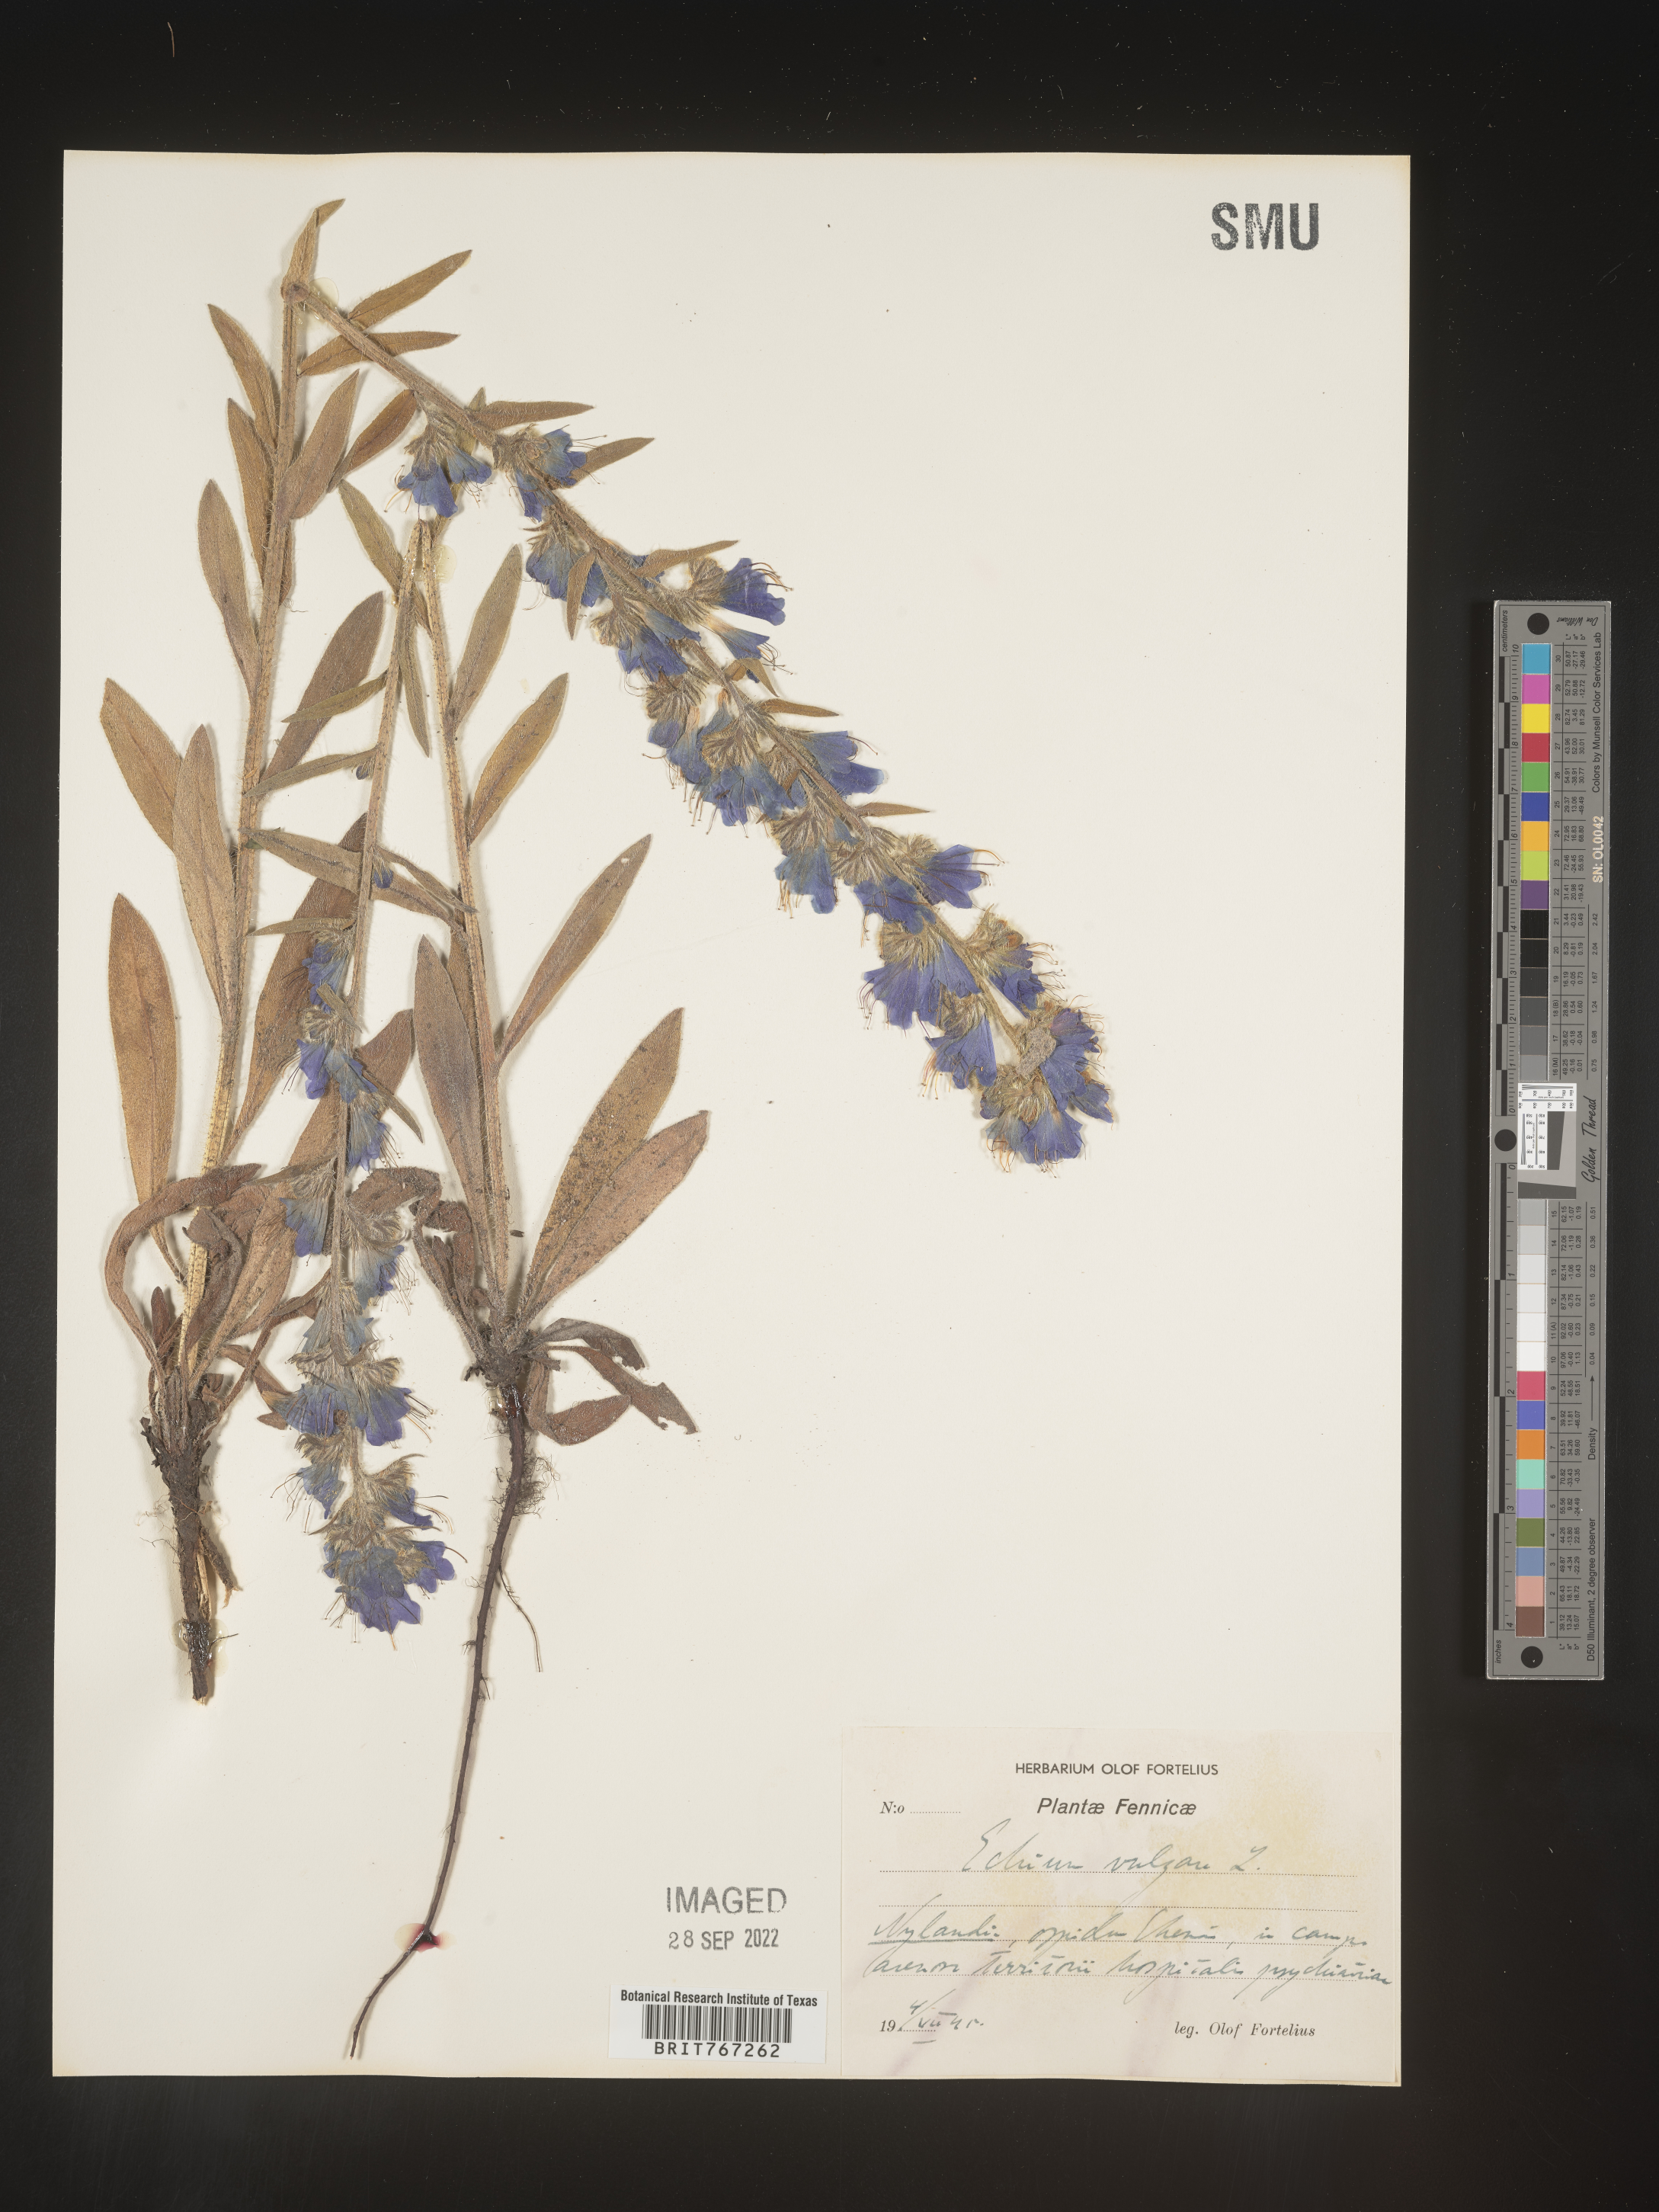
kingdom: Plantae
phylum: Tracheophyta
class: Magnoliopsida
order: Boraginales
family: Boraginaceae
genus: Echium
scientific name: Echium
